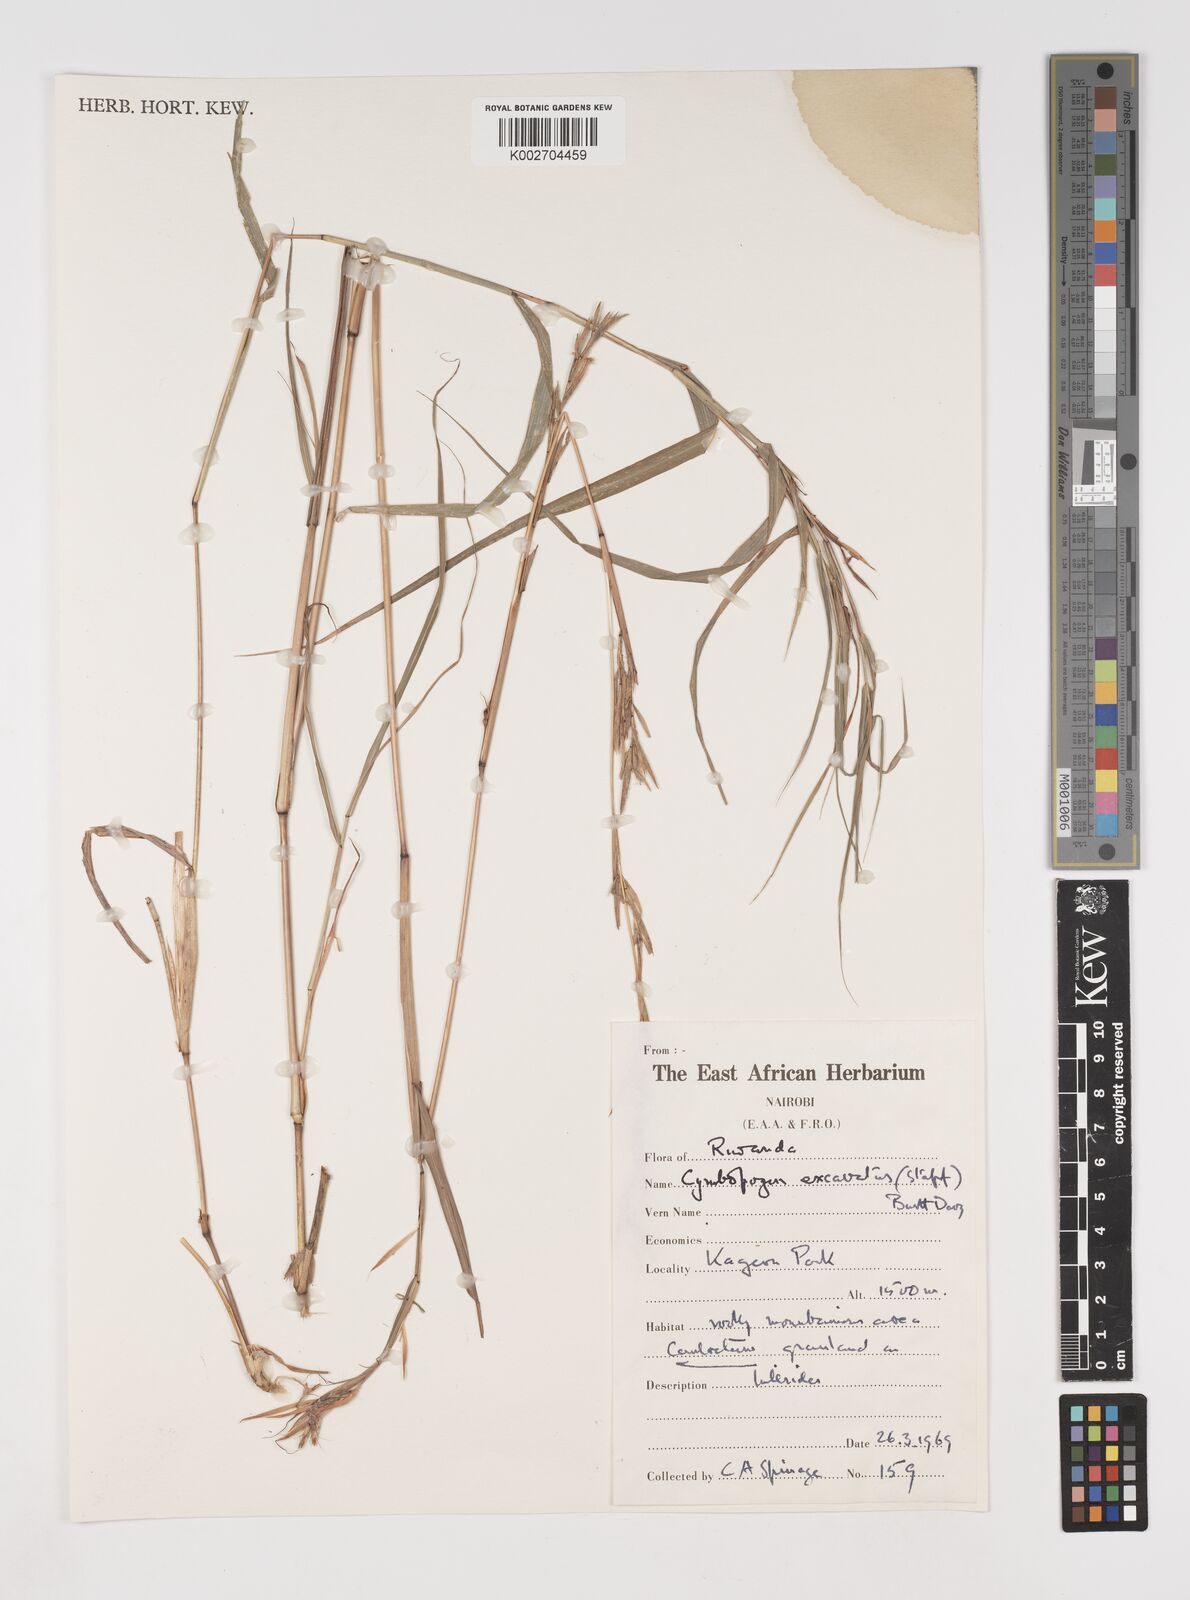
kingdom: Plantae
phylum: Tracheophyta
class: Liliopsida
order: Poales
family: Poaceae
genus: Cymbopogon
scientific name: Cymbopogon caesius
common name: Kachi grass
